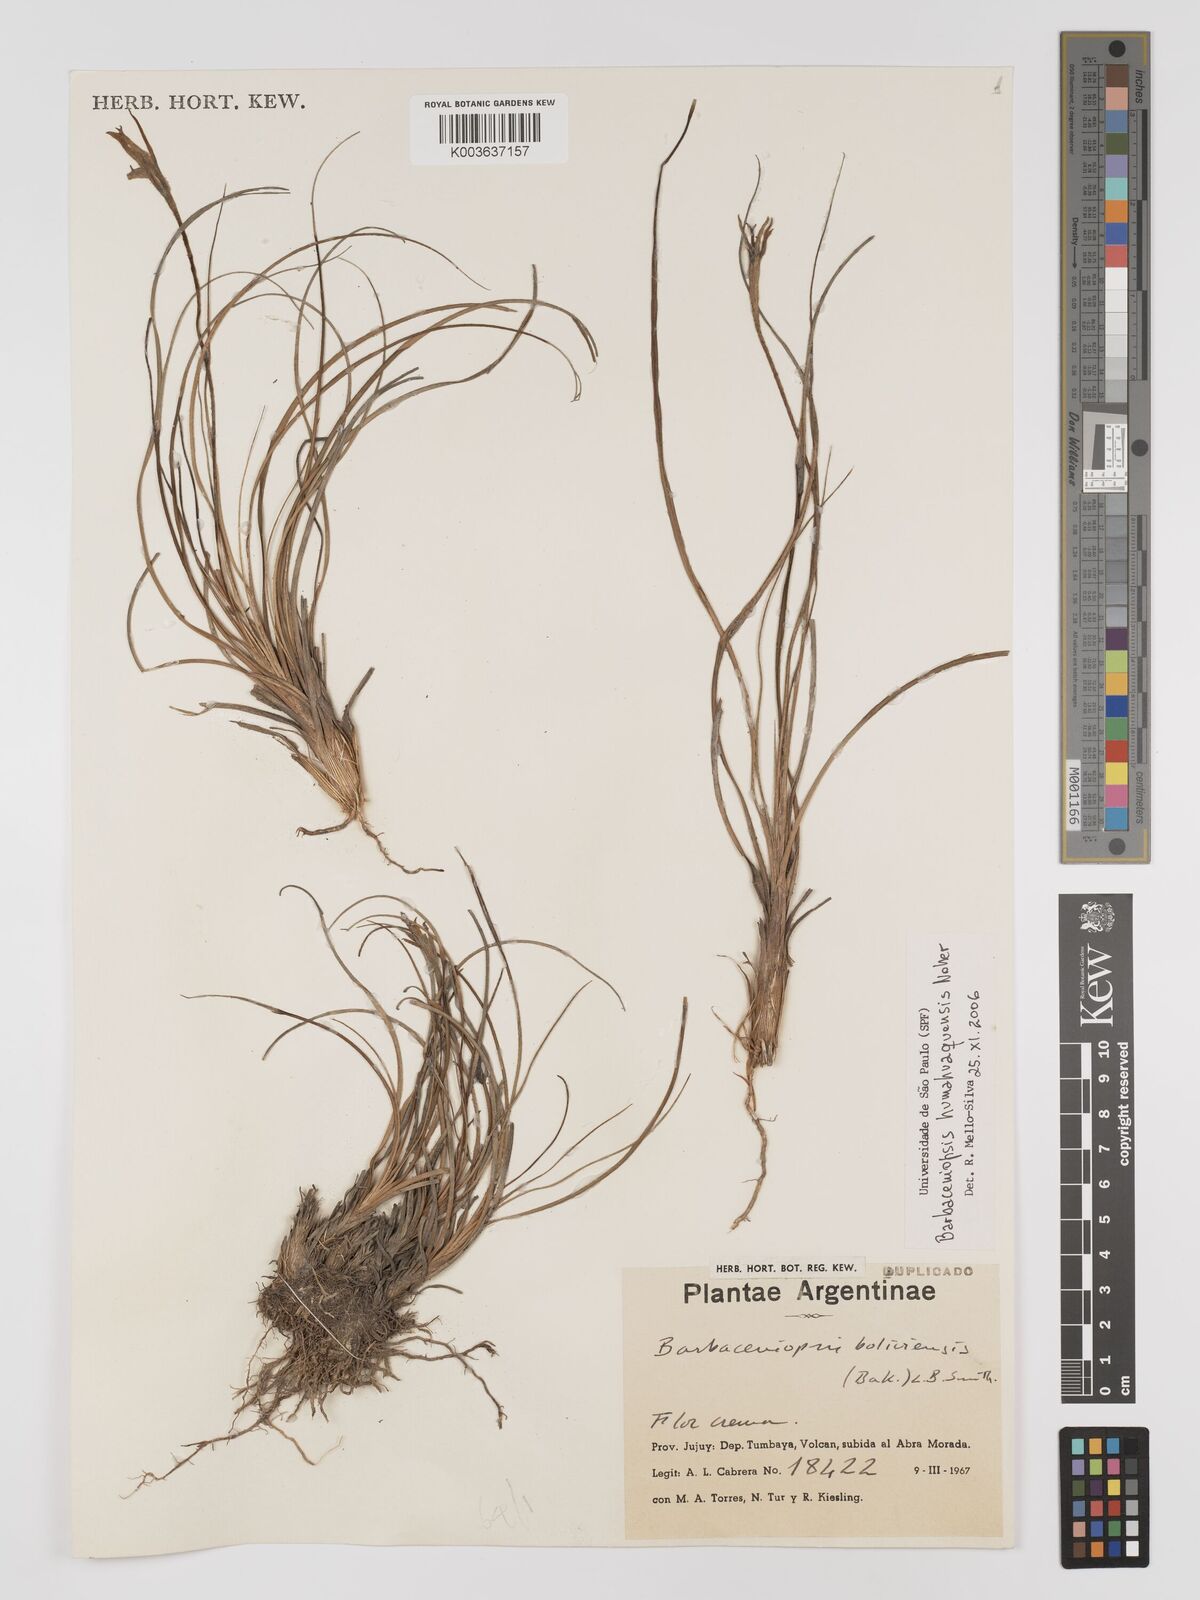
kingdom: Plantae
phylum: Tracheophyta
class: Liliopsida
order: Pandanales
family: Velloziaceae
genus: Xerophyta
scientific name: Xerophyta
